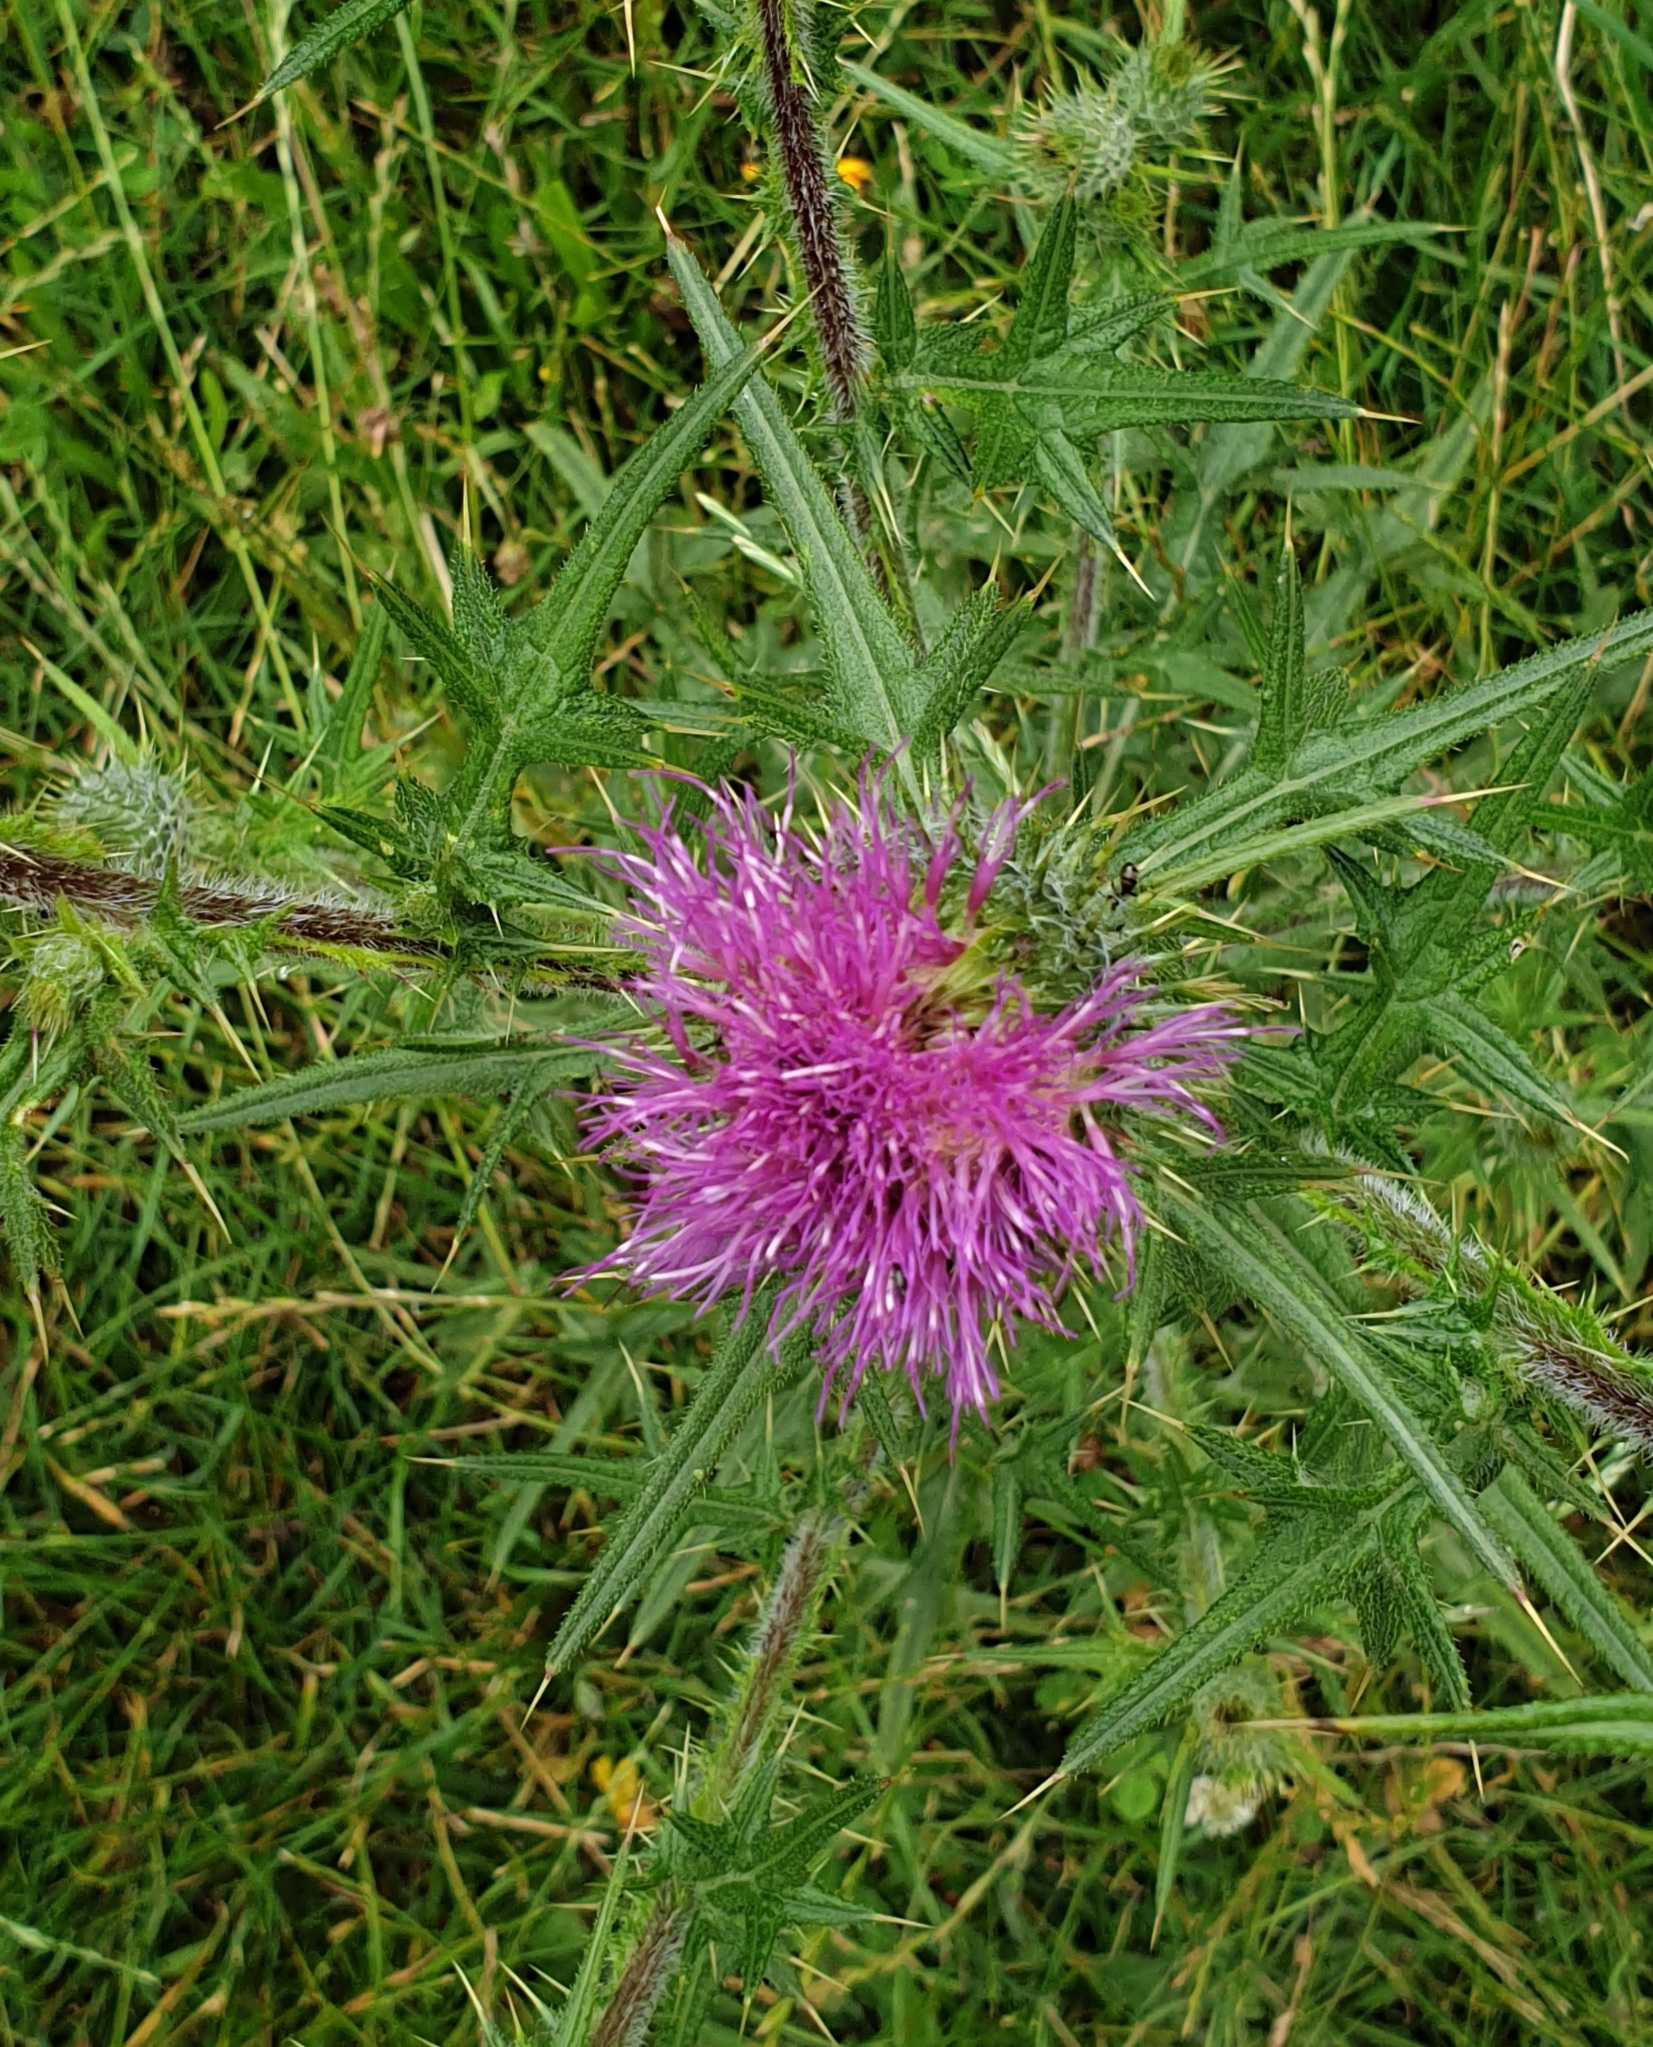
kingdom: Plantae
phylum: Tracheophyta
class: Magnoliopsida
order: Asterales
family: Asteraceae
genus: Cirsium
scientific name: Cirsium vulgare
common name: Horse-tidsel
